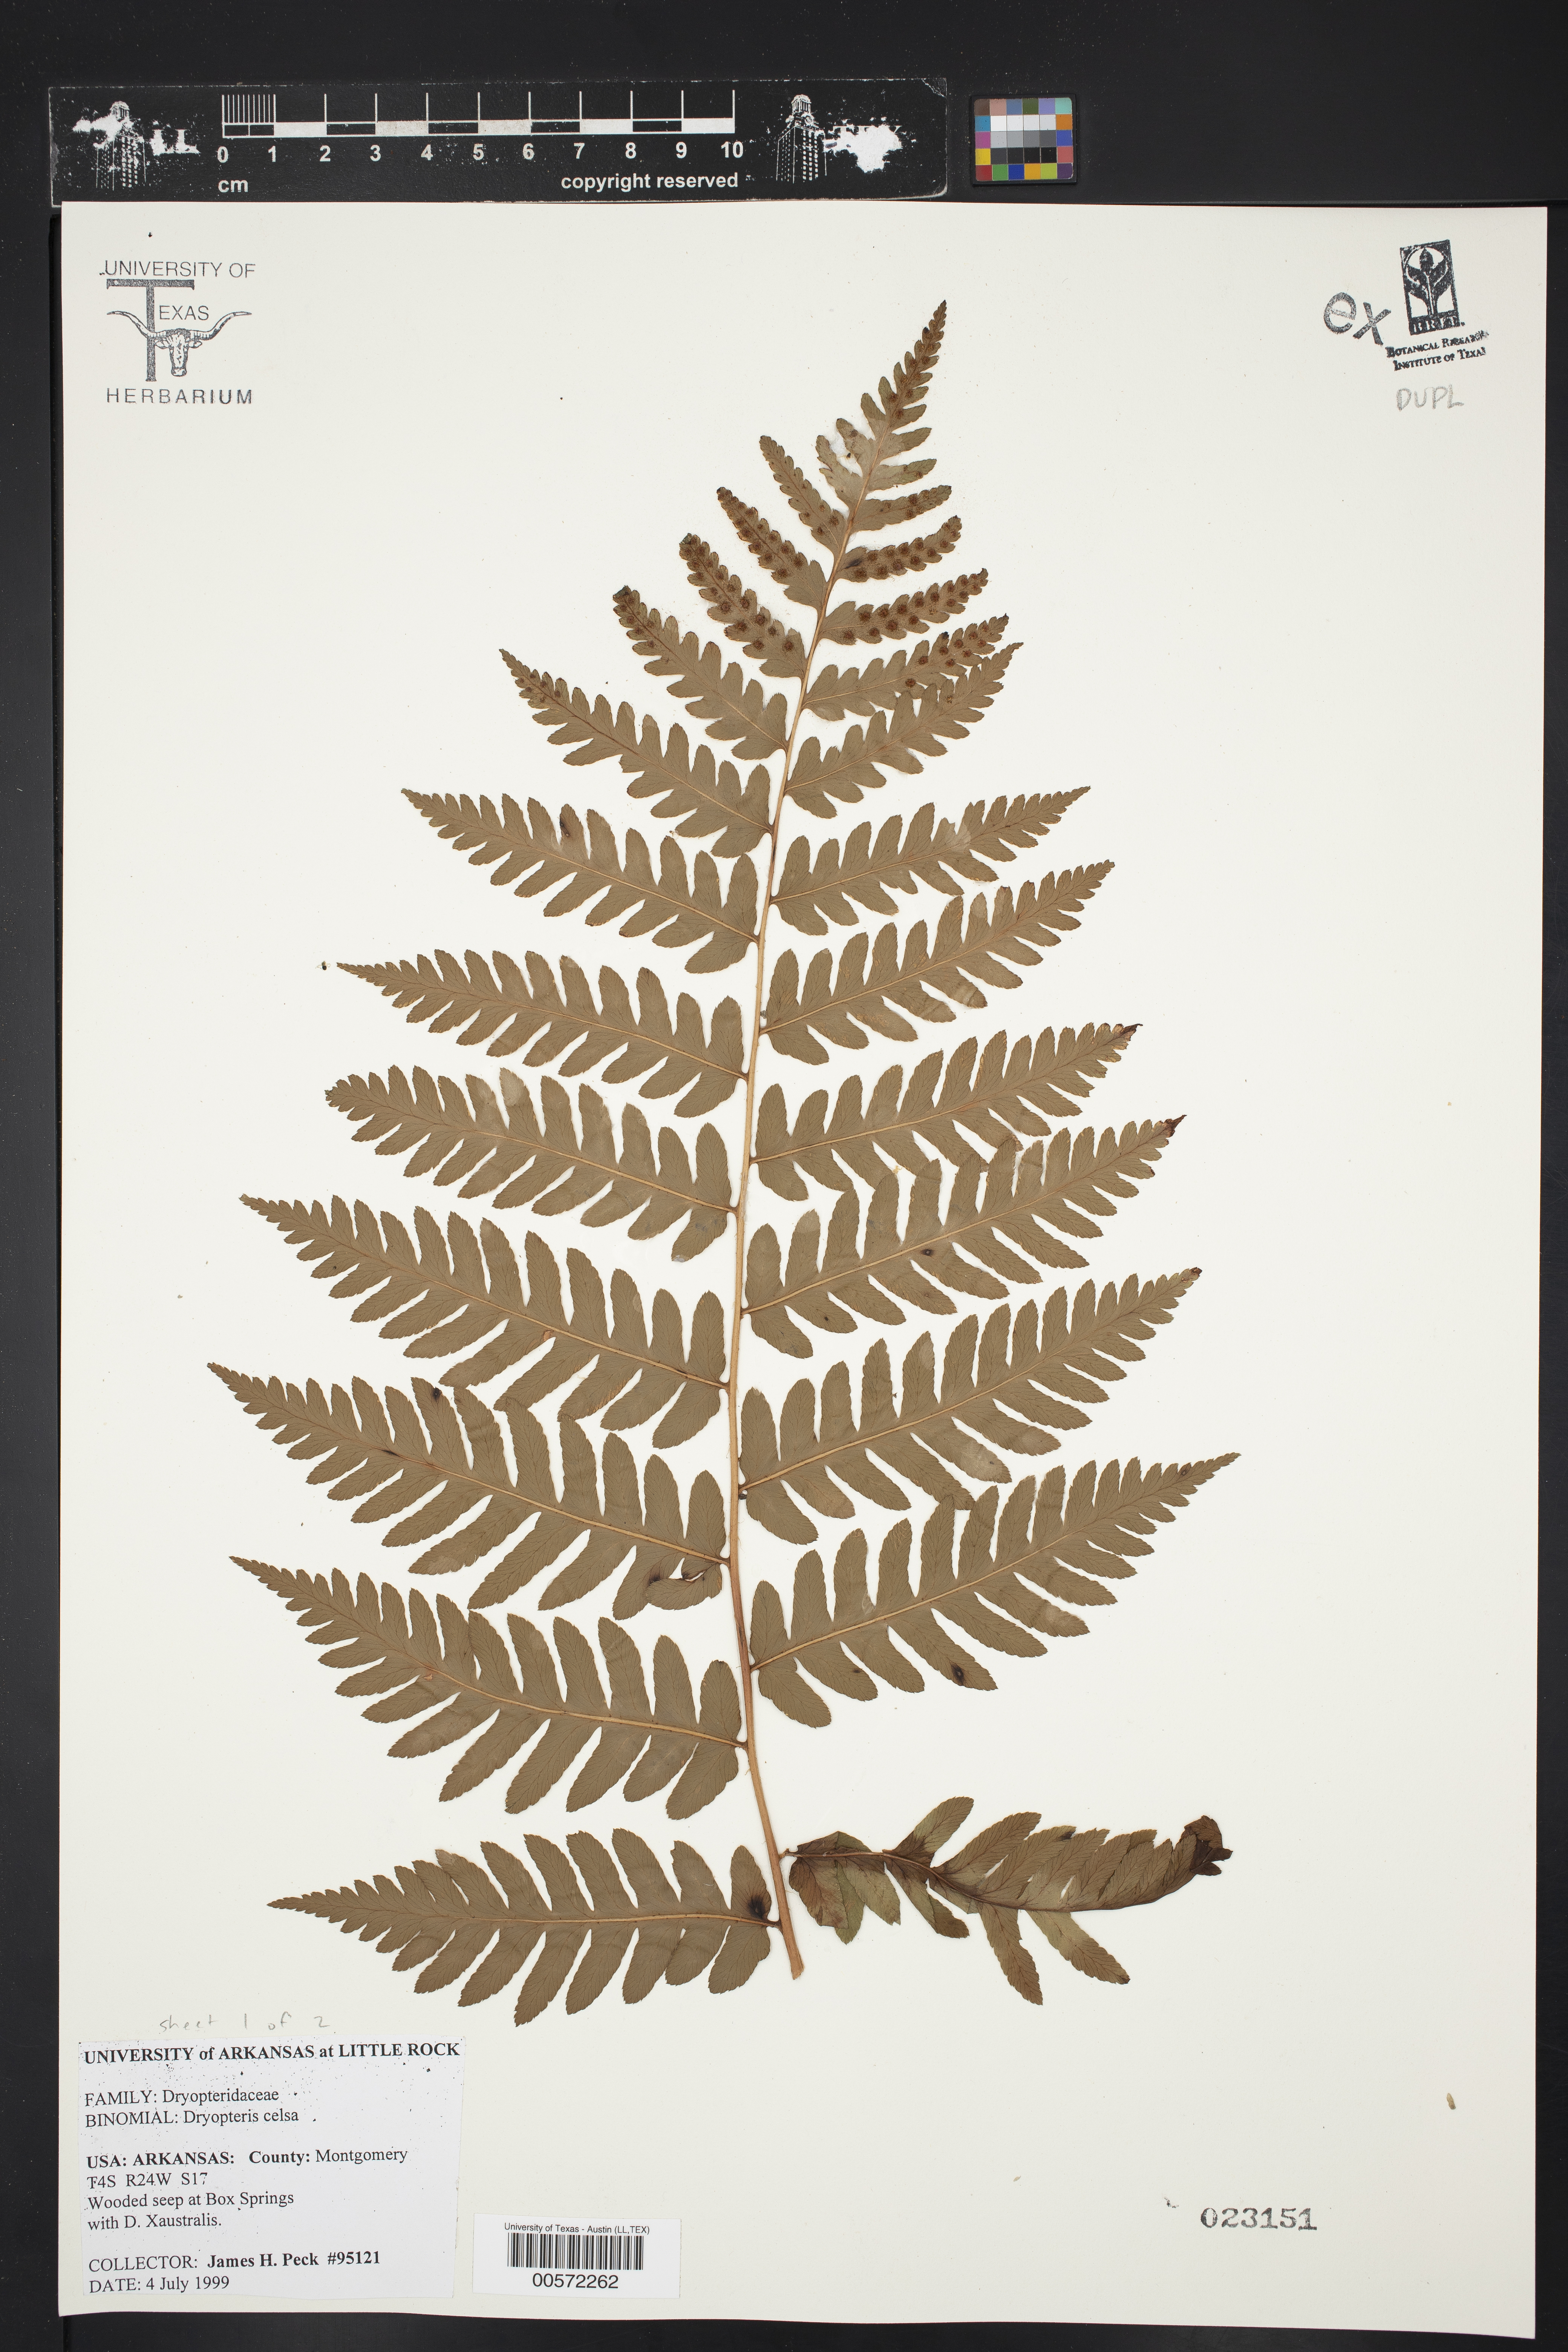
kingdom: Plantae
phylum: Tracheophyta
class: Polypodiopsida
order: Polypodiales
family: Dryopteridaceae
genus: Dryopteris
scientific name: Dryopteris celsa
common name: Log fern
